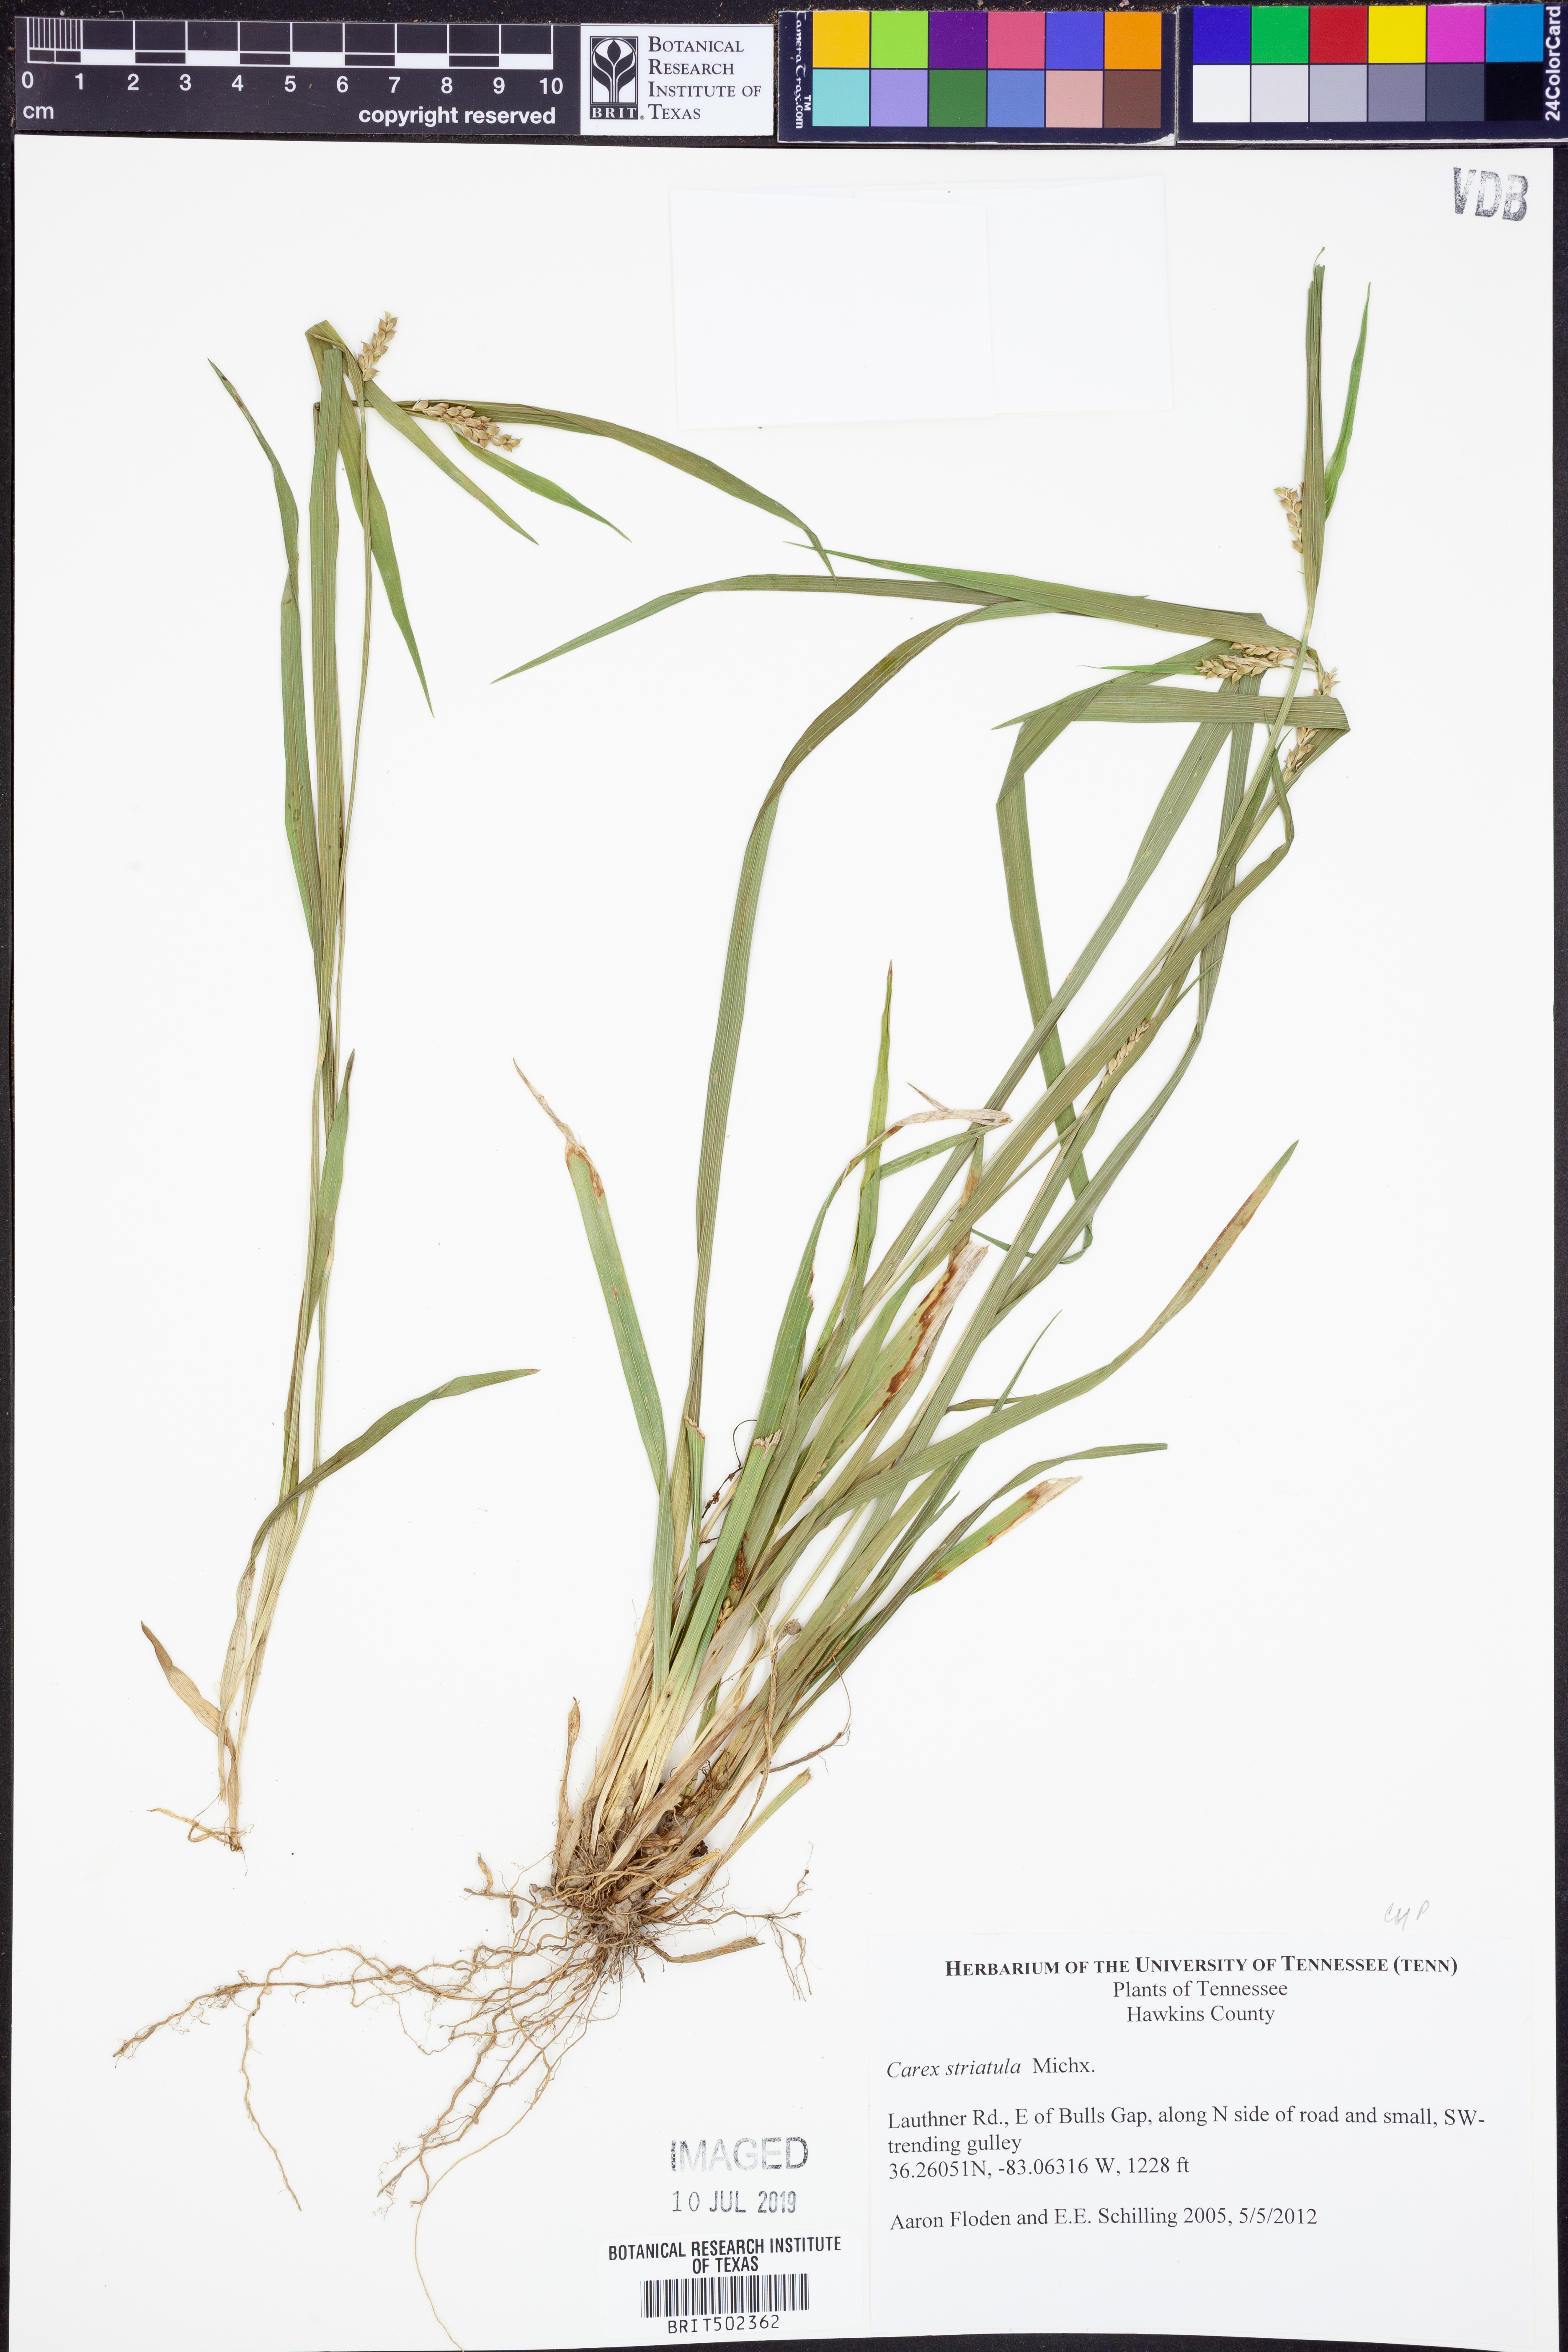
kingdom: Plantae
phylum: Tracheophyta
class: Liliopsida
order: Poales
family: Cyperaceae
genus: Carex
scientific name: Carex striatula
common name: Lined sedge
